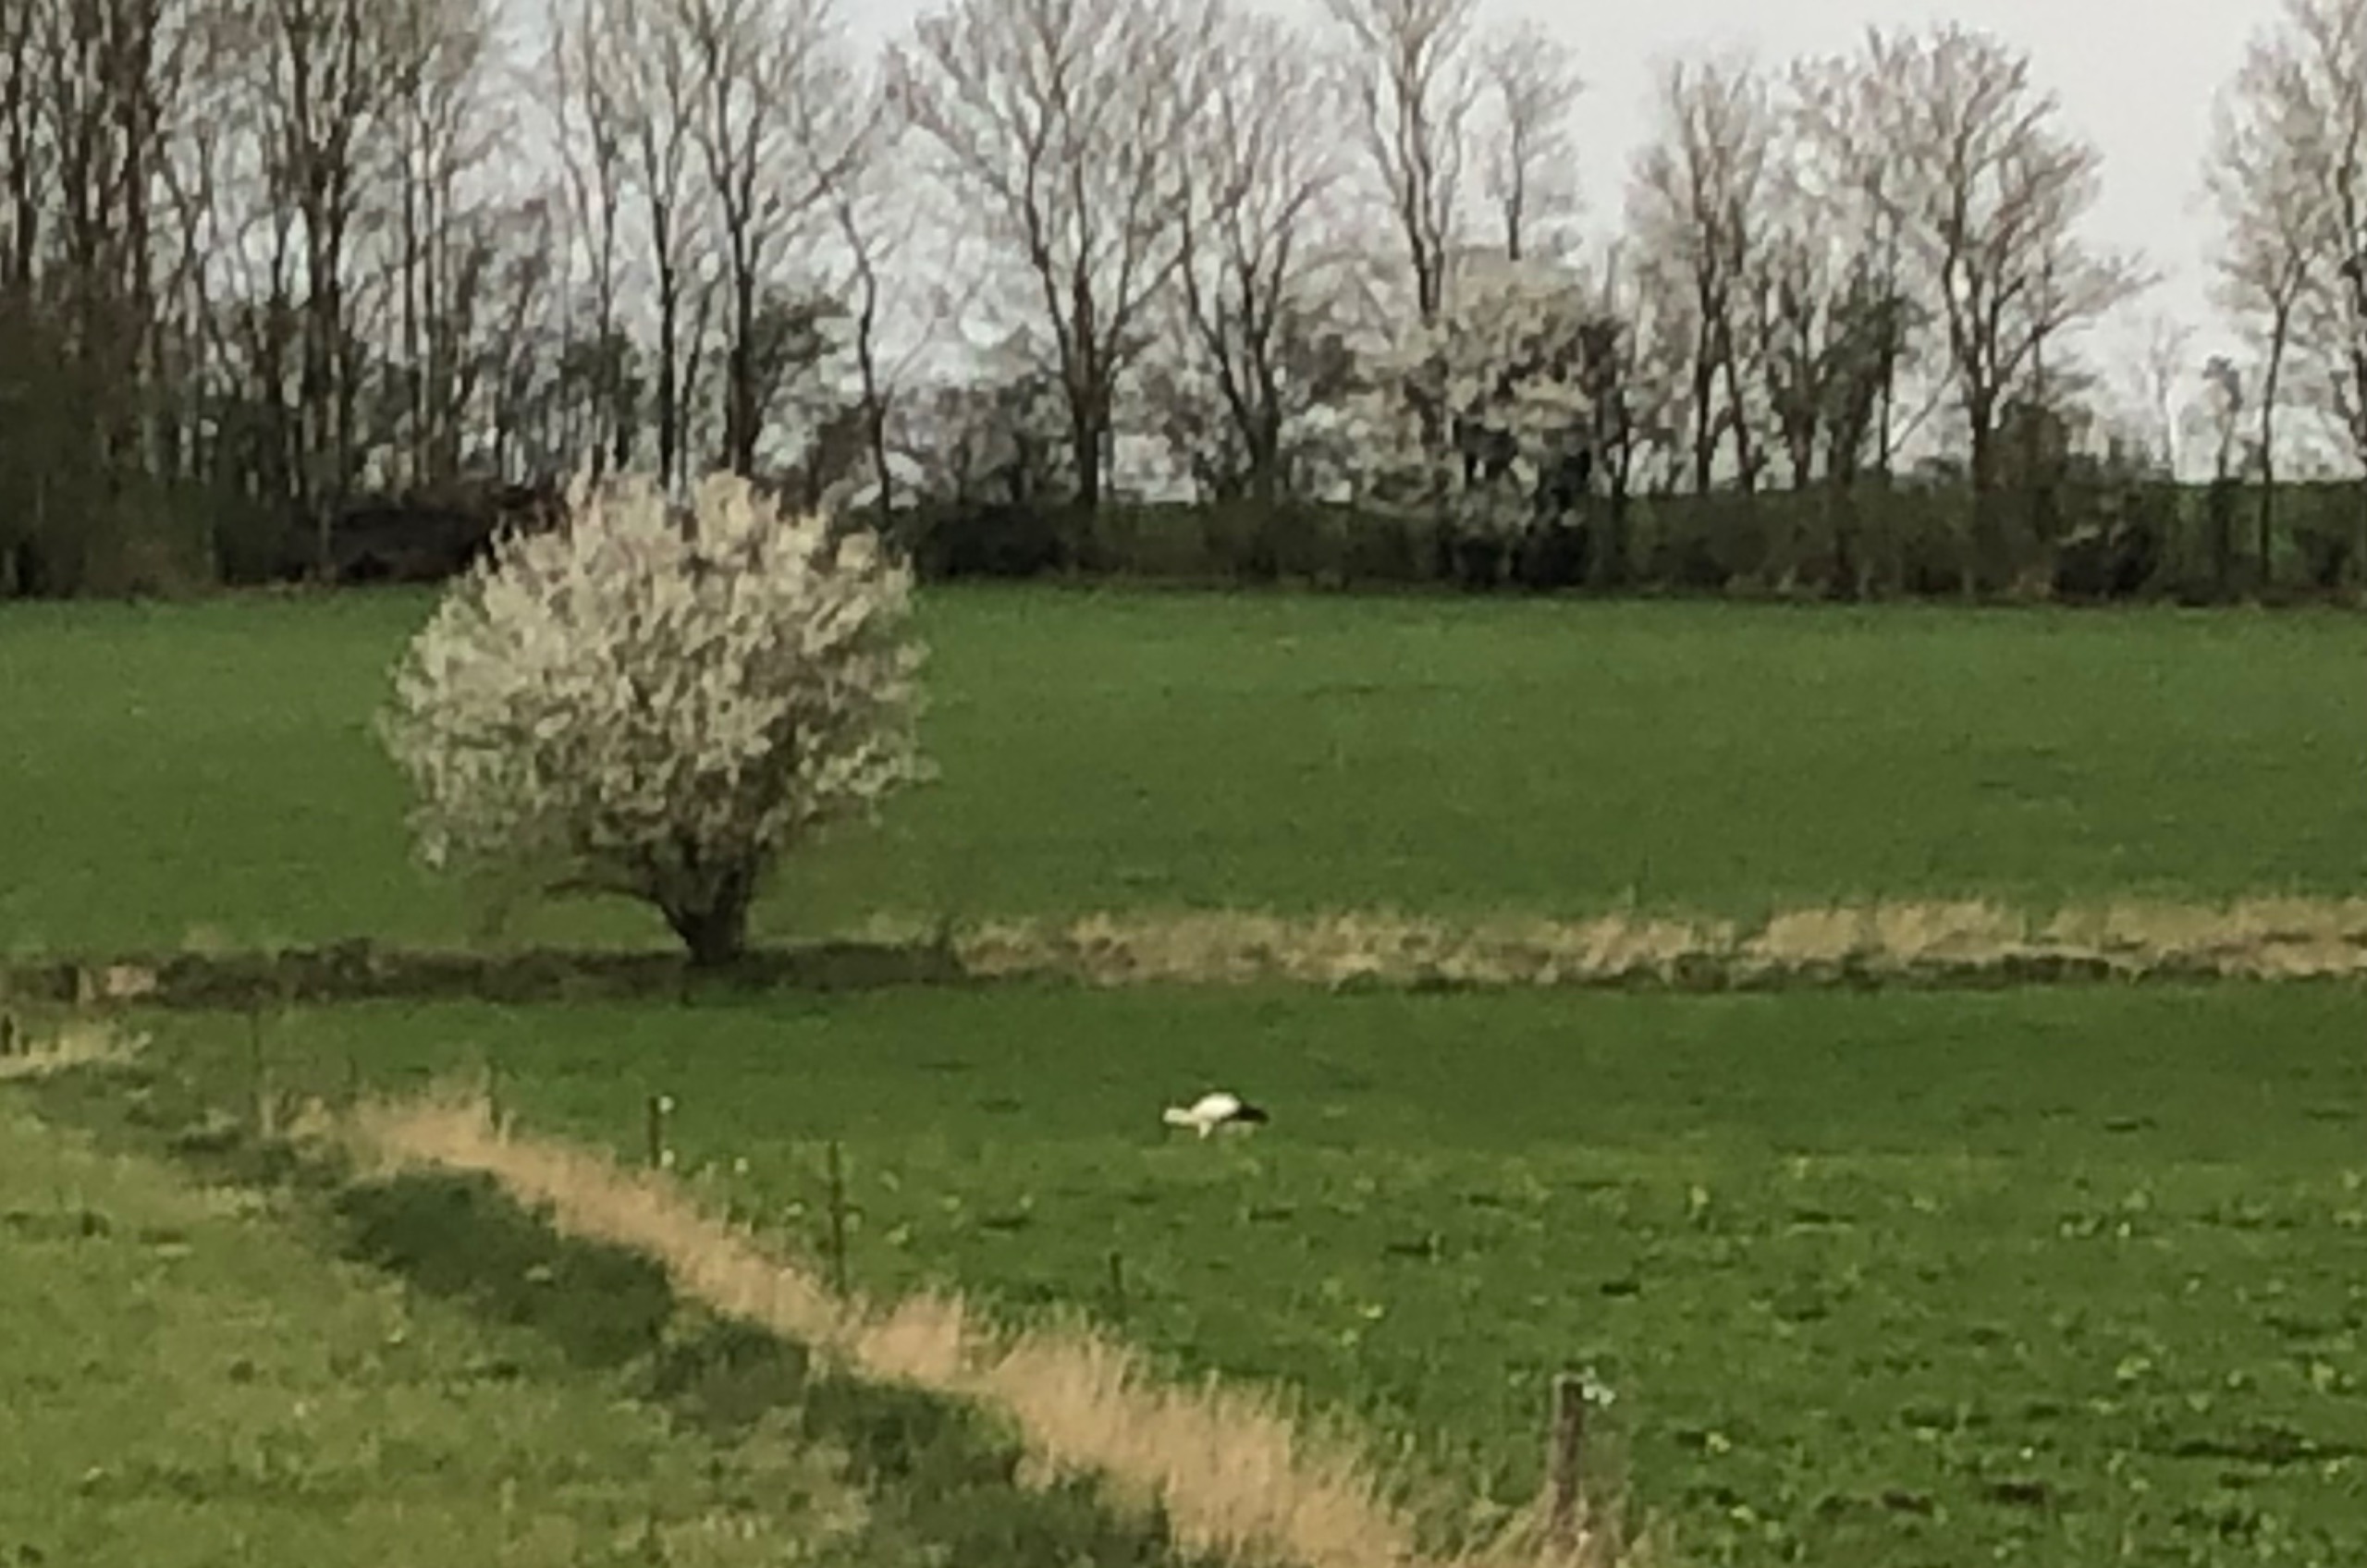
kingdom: Animalia
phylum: Chordata
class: Aves
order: Ciconiiformes
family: Ciconiidae
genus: Ciconia
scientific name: Ciconia ciconia
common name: Hvid stork
